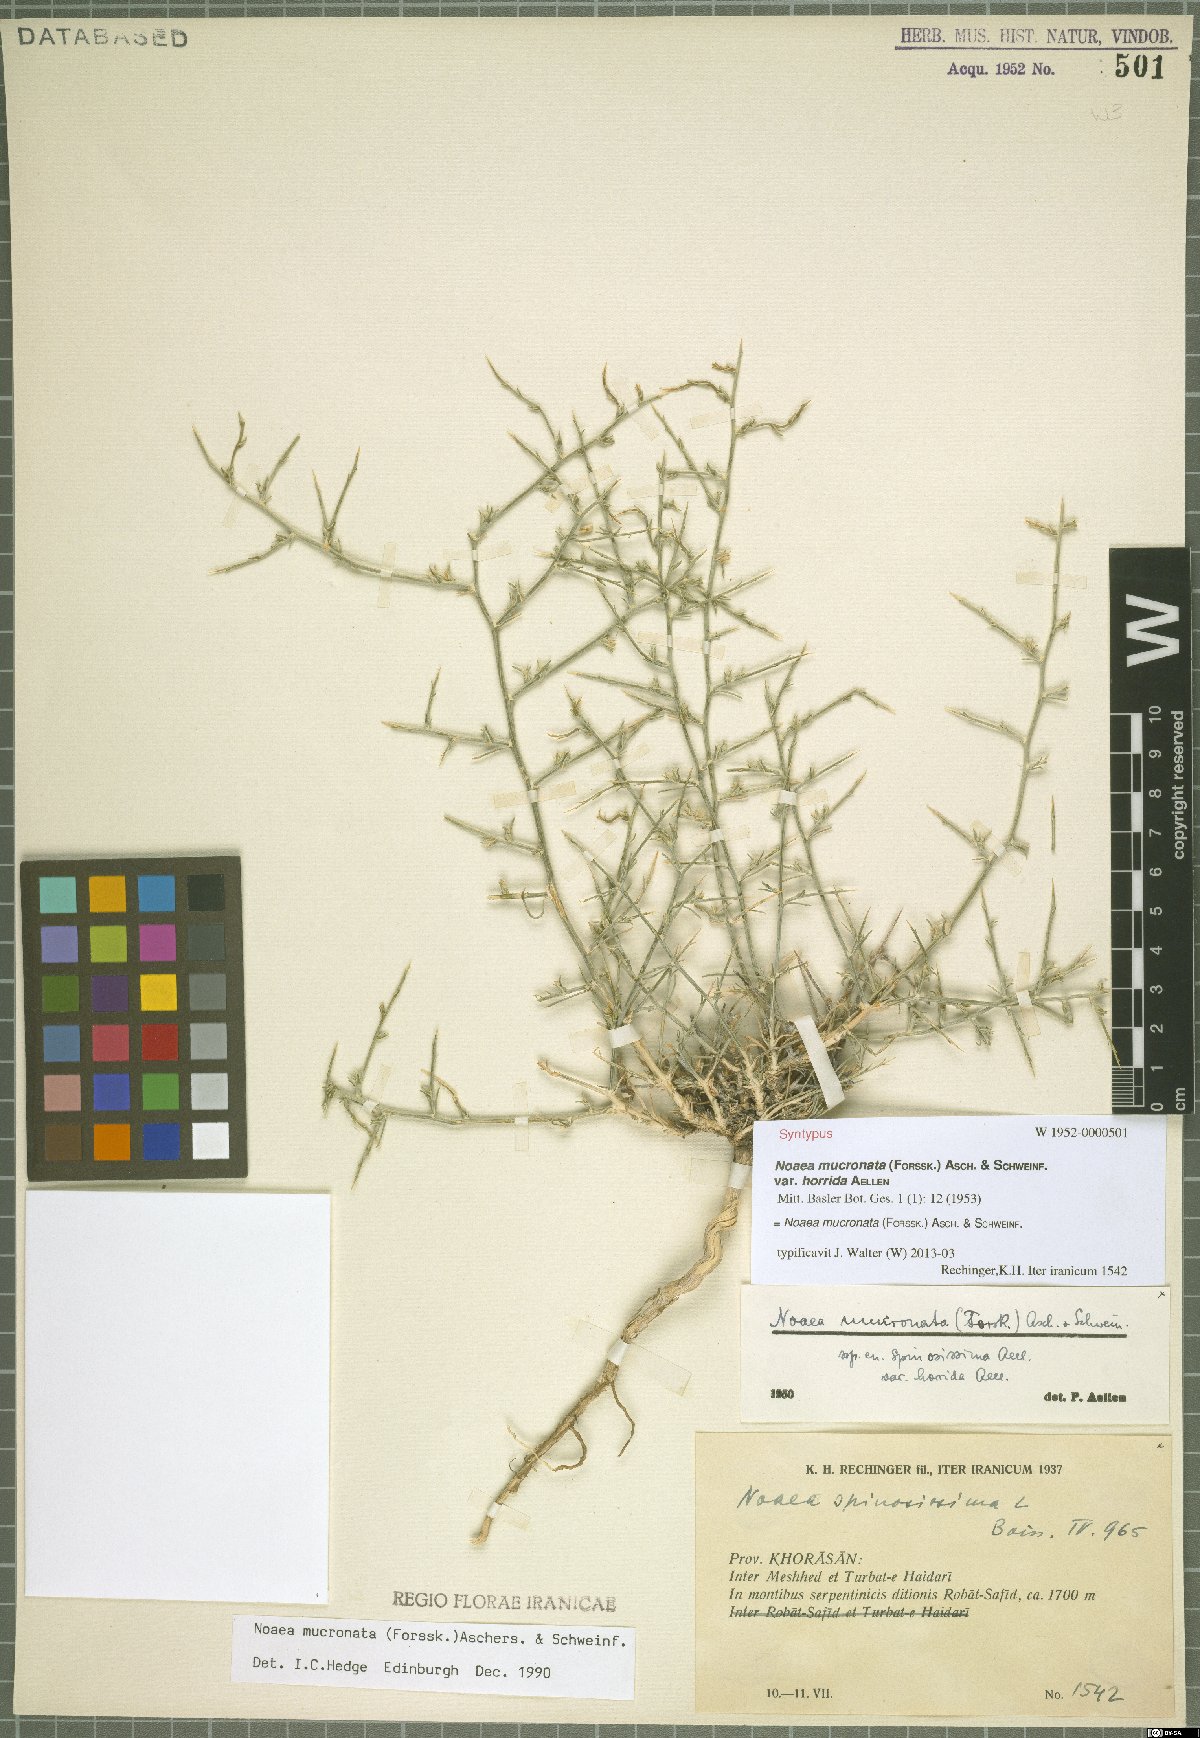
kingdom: Plantae
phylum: Tracheophyta
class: Magnoliopsida
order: Caryophyllales
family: Amaranthaceae
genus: Noaea
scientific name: Noaea mucronata
